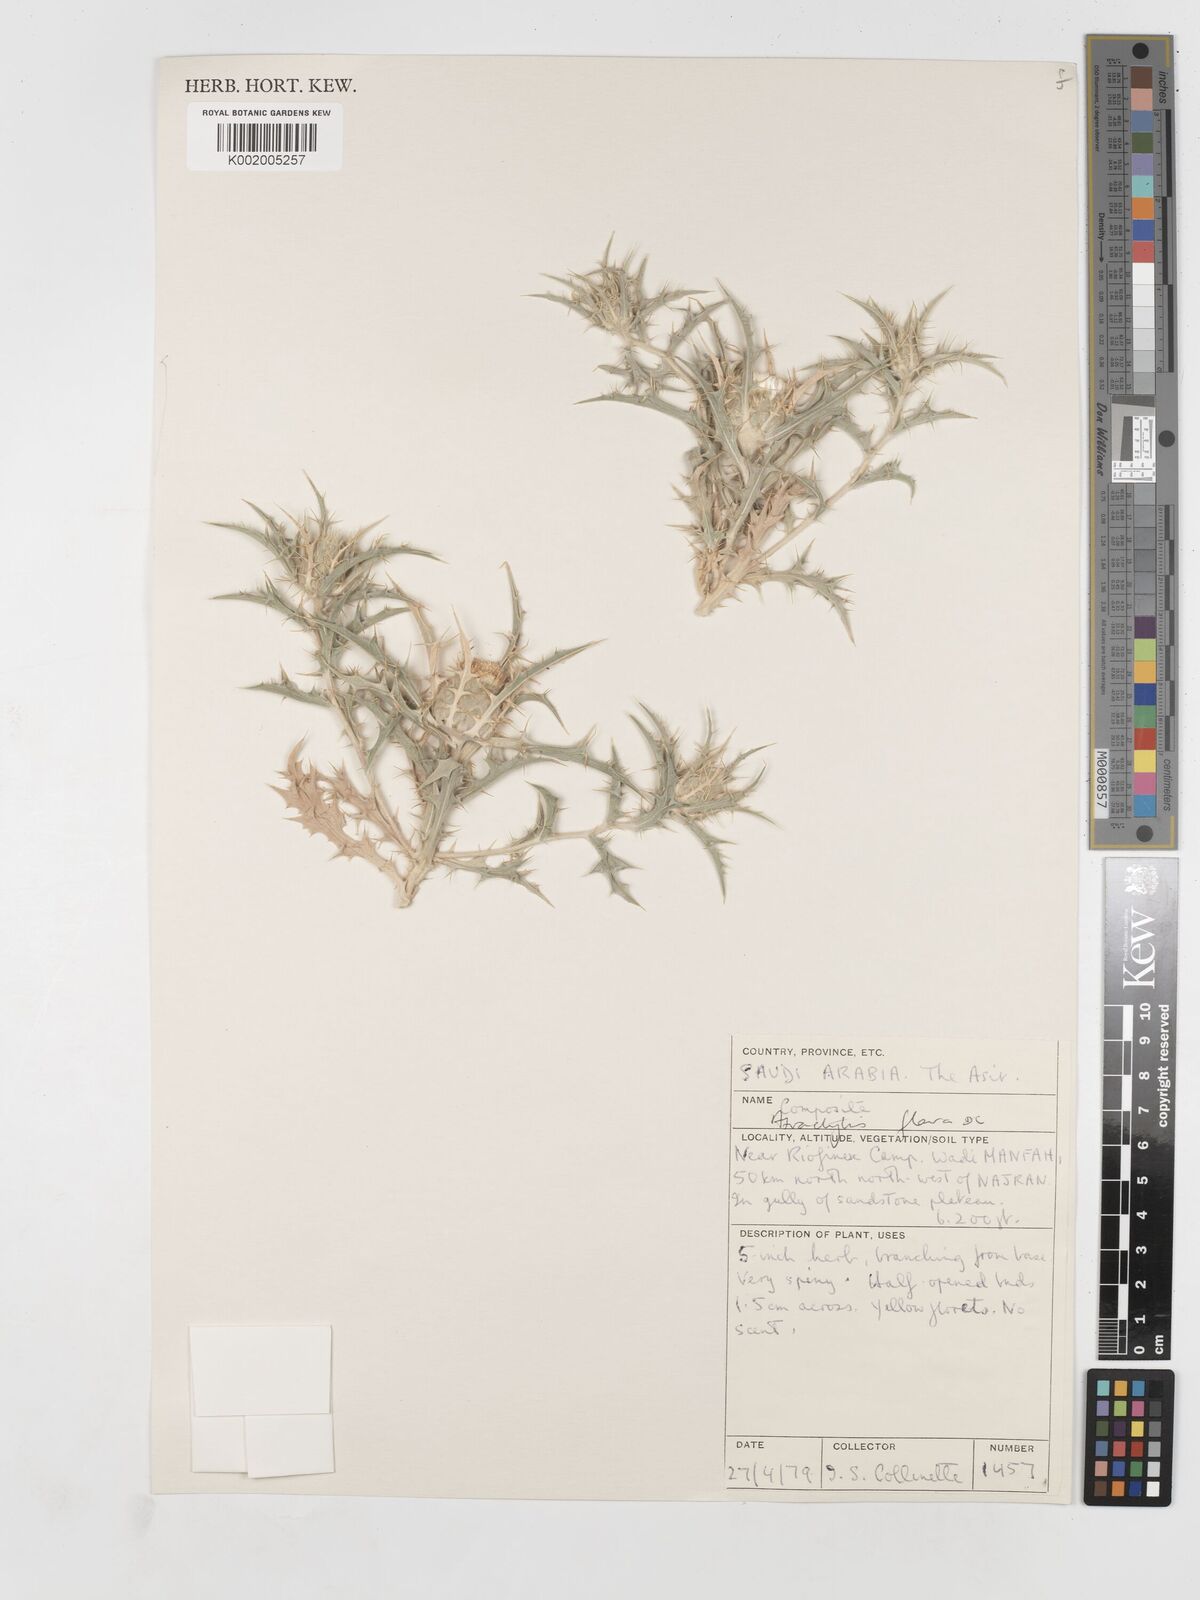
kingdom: Plantae
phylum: Tracheophyta
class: Magnoliopsida
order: Asterales
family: Asteraceae
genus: Atractylis
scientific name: Atractylis carduus
